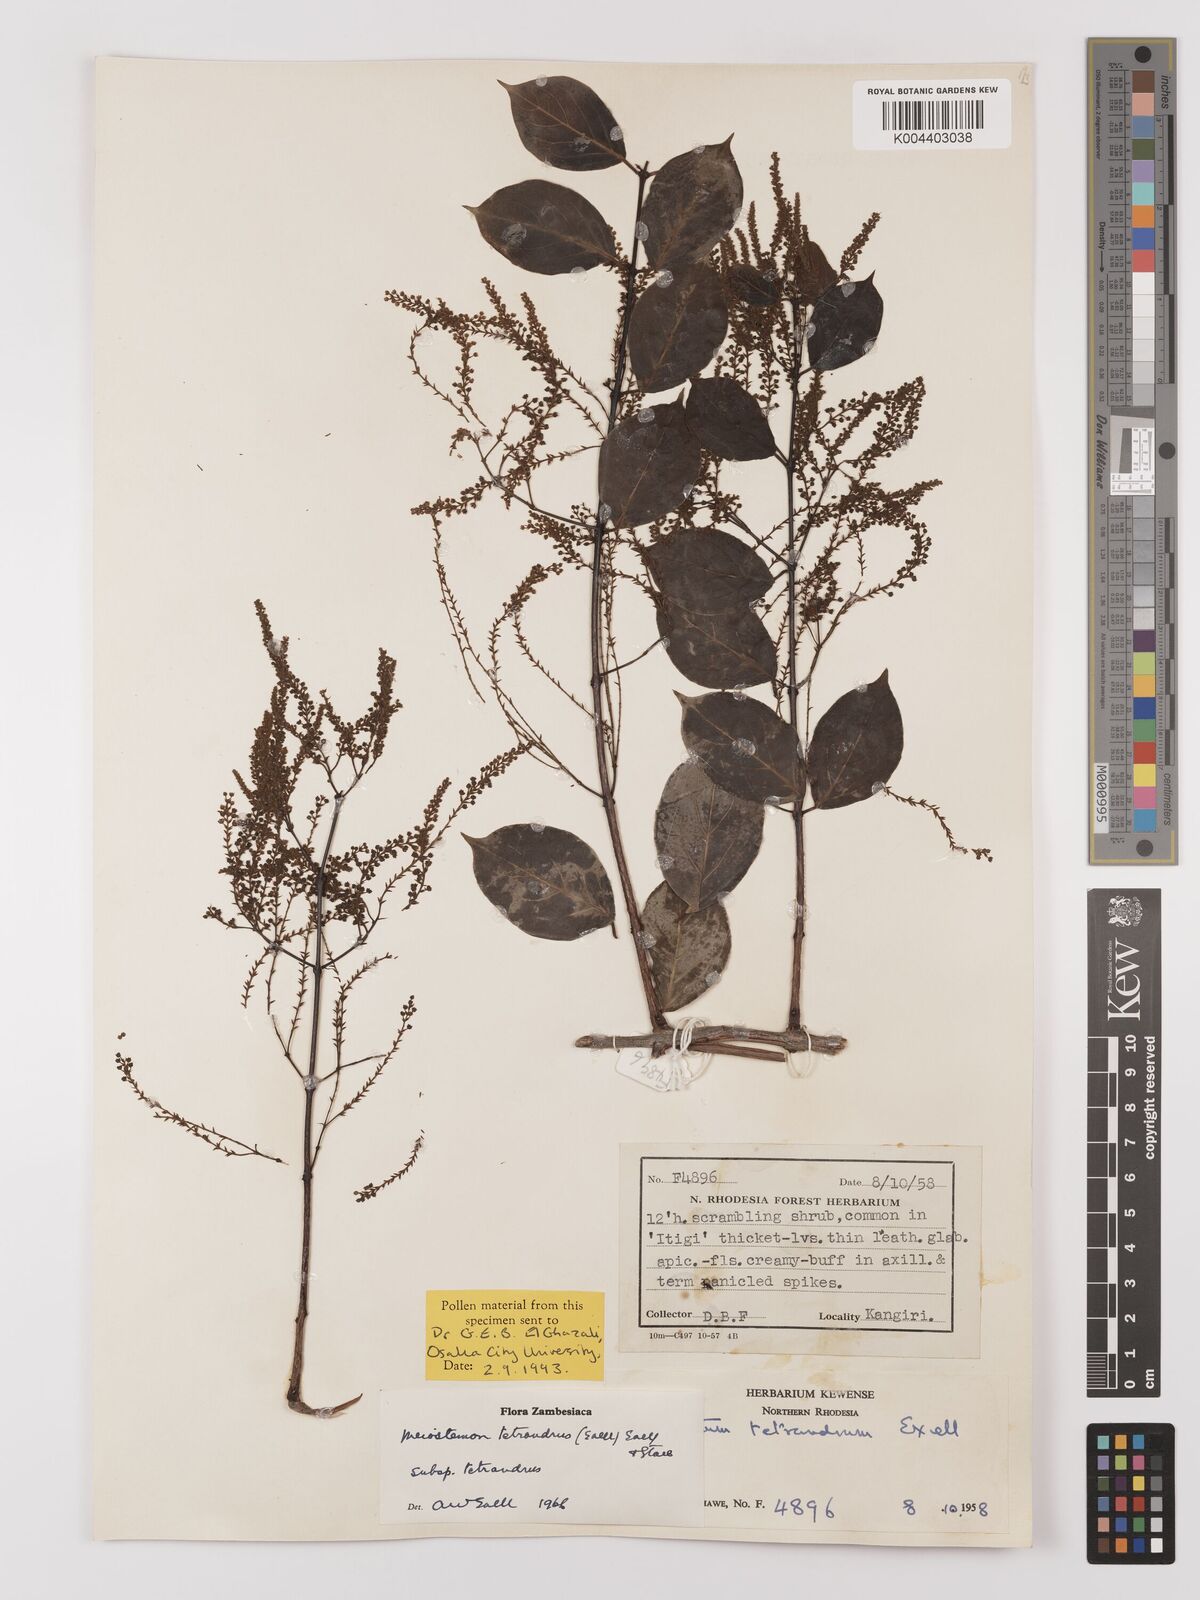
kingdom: Plantae
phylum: Tracheophyta
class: Magnoliopsida
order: Myrtales
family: Combretaceae
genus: Combretum
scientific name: Combretum tetrandrum
